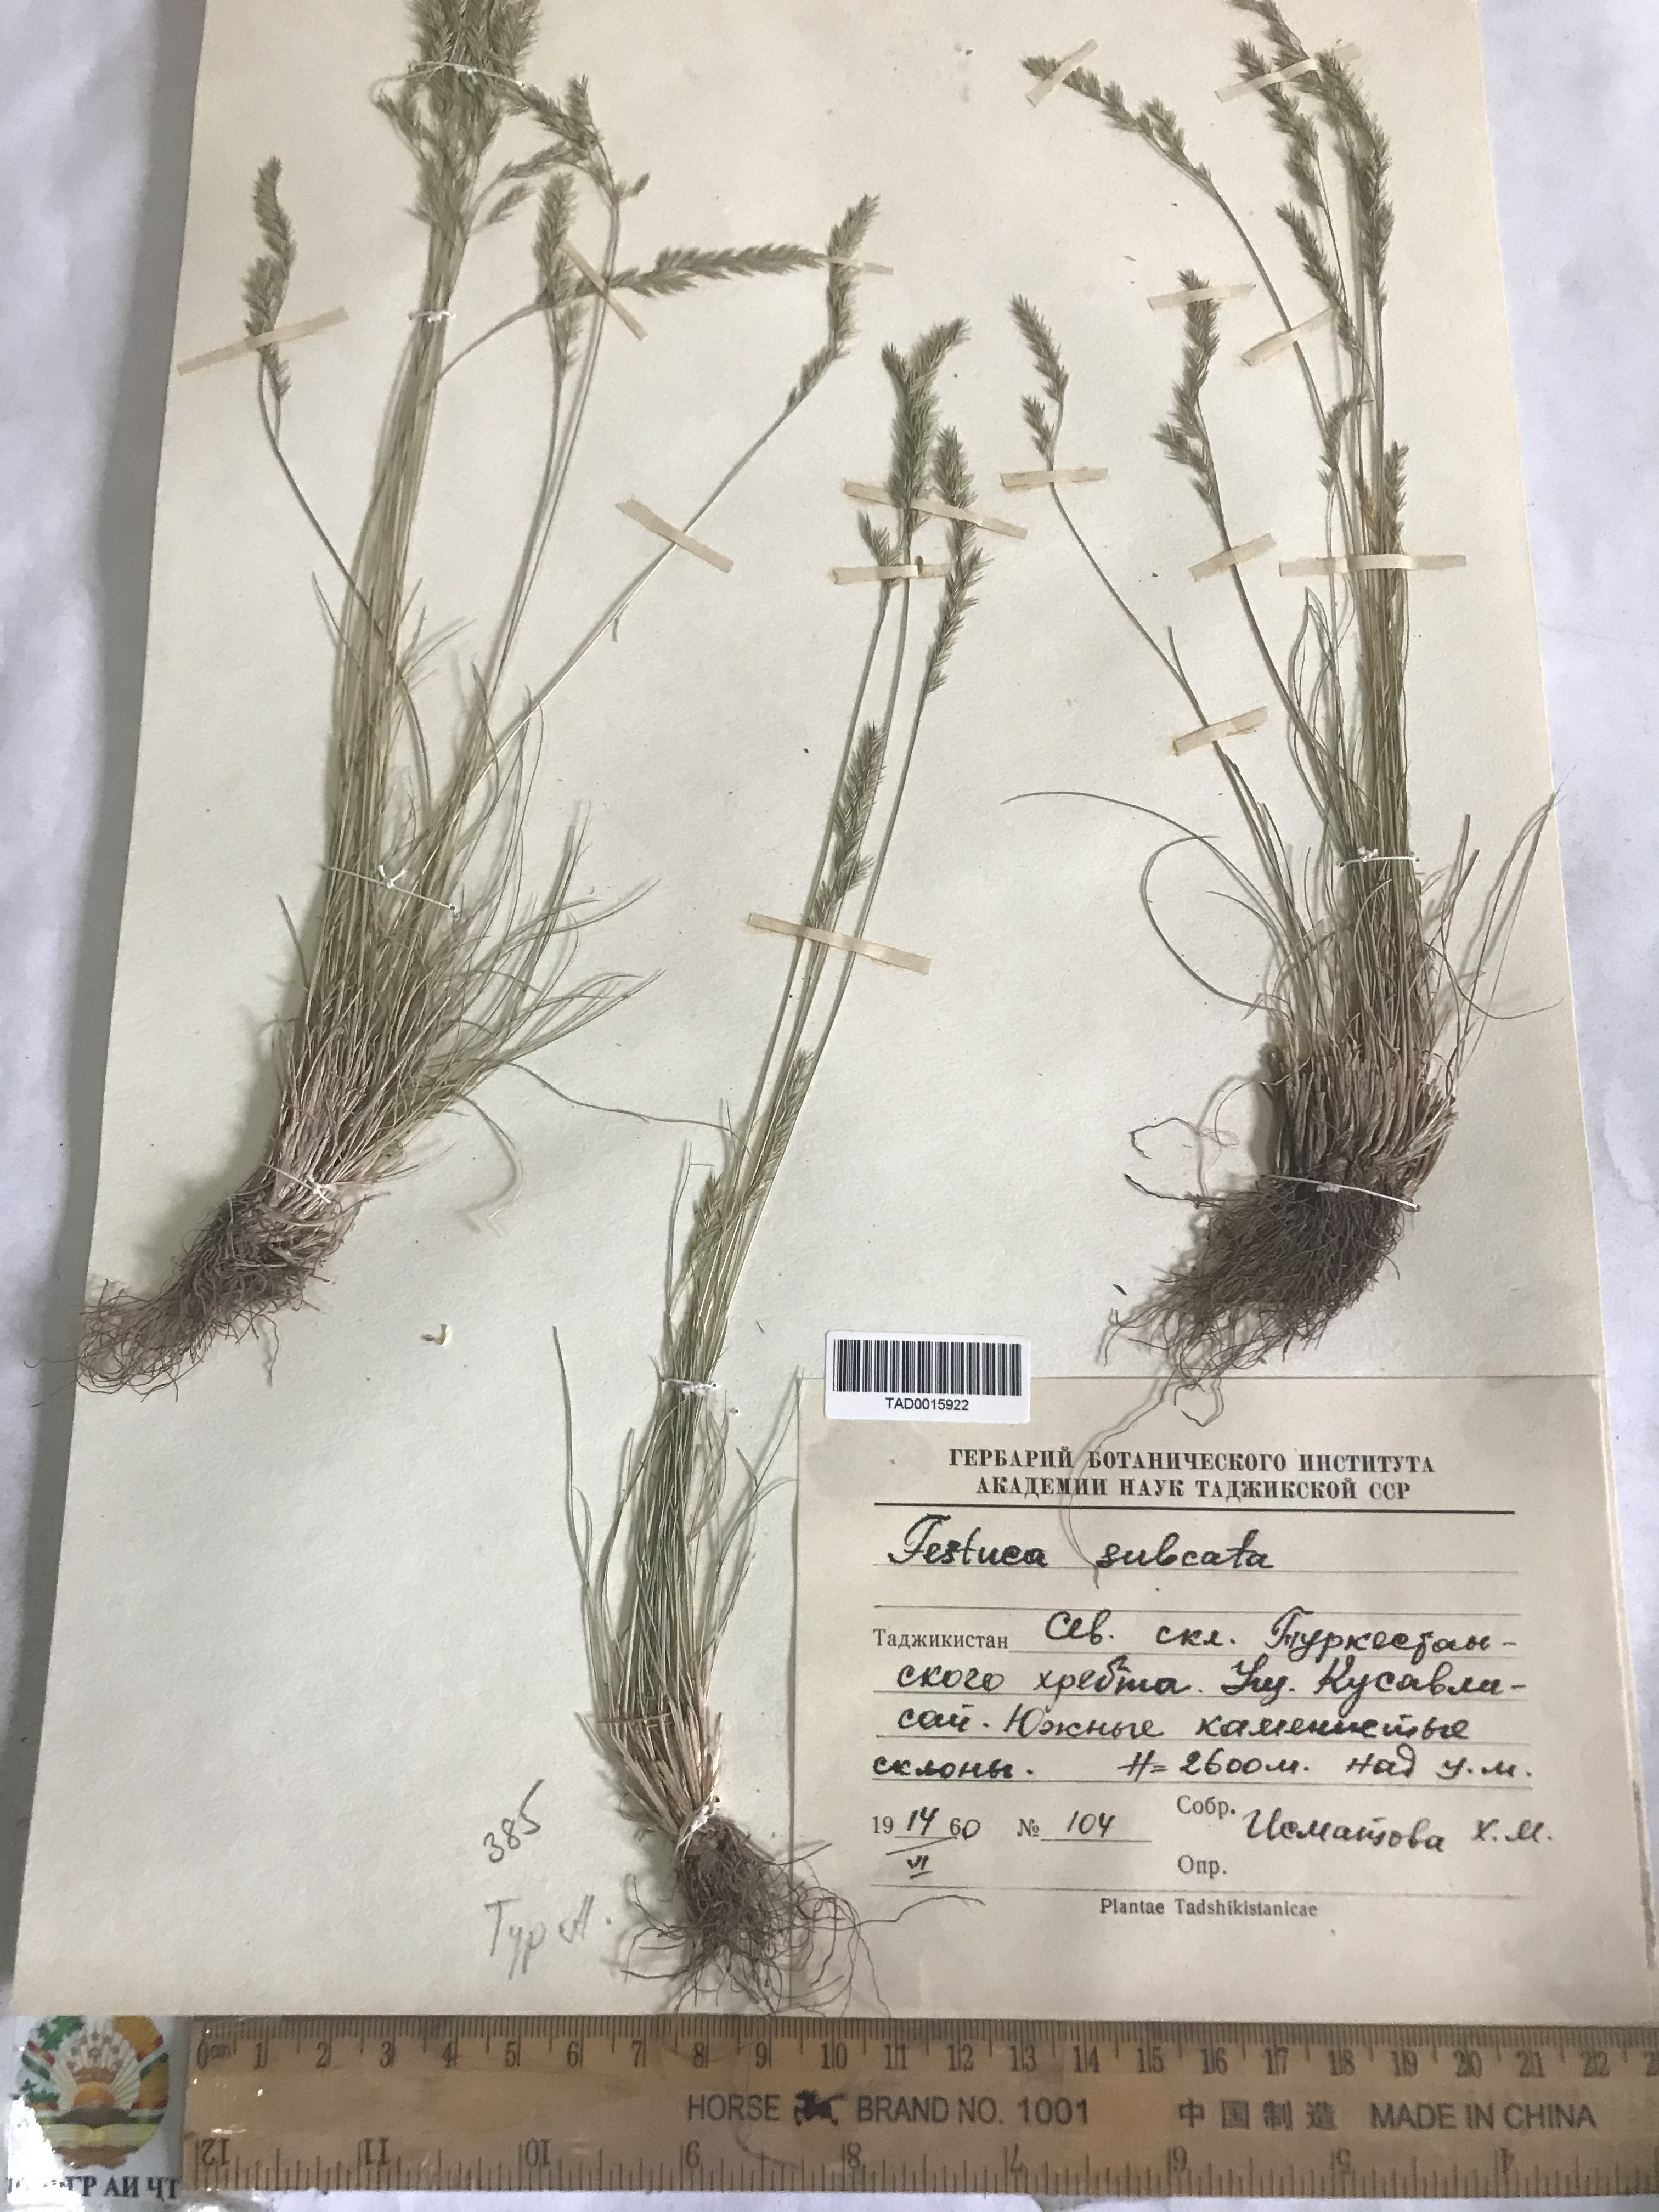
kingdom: Plantae
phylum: Tracheophyta
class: Liliopsida
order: Poales
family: Poaceae
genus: Festuca
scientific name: Festuca sulcata
